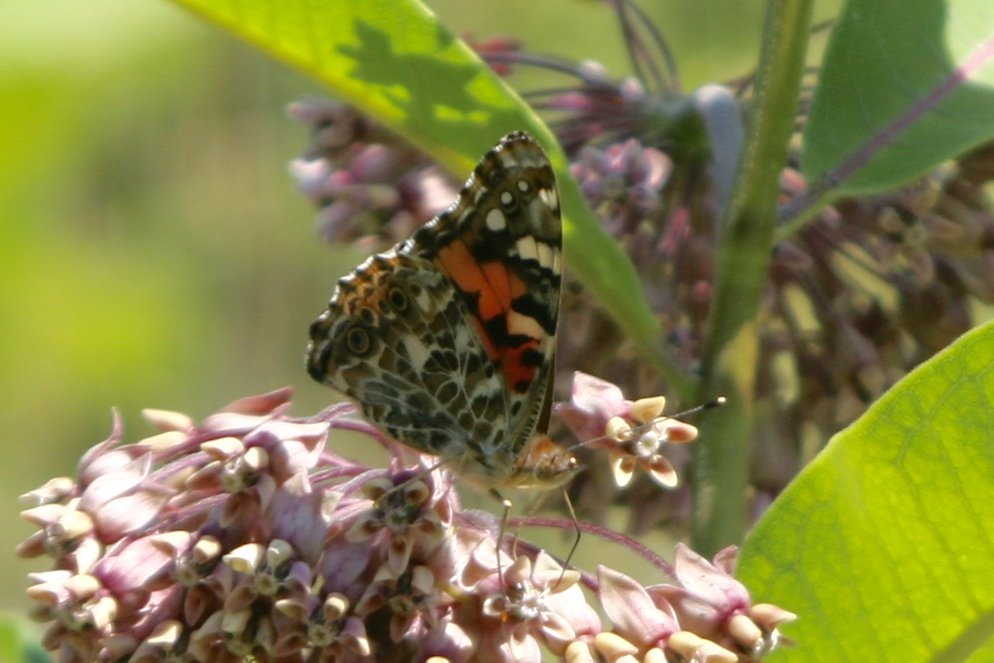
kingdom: Animalia
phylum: Arthropoda
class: Insecta
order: Lepidoptera
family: Nymphalidae
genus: Vanessa
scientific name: Vanessa cardui
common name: Painted Lady
